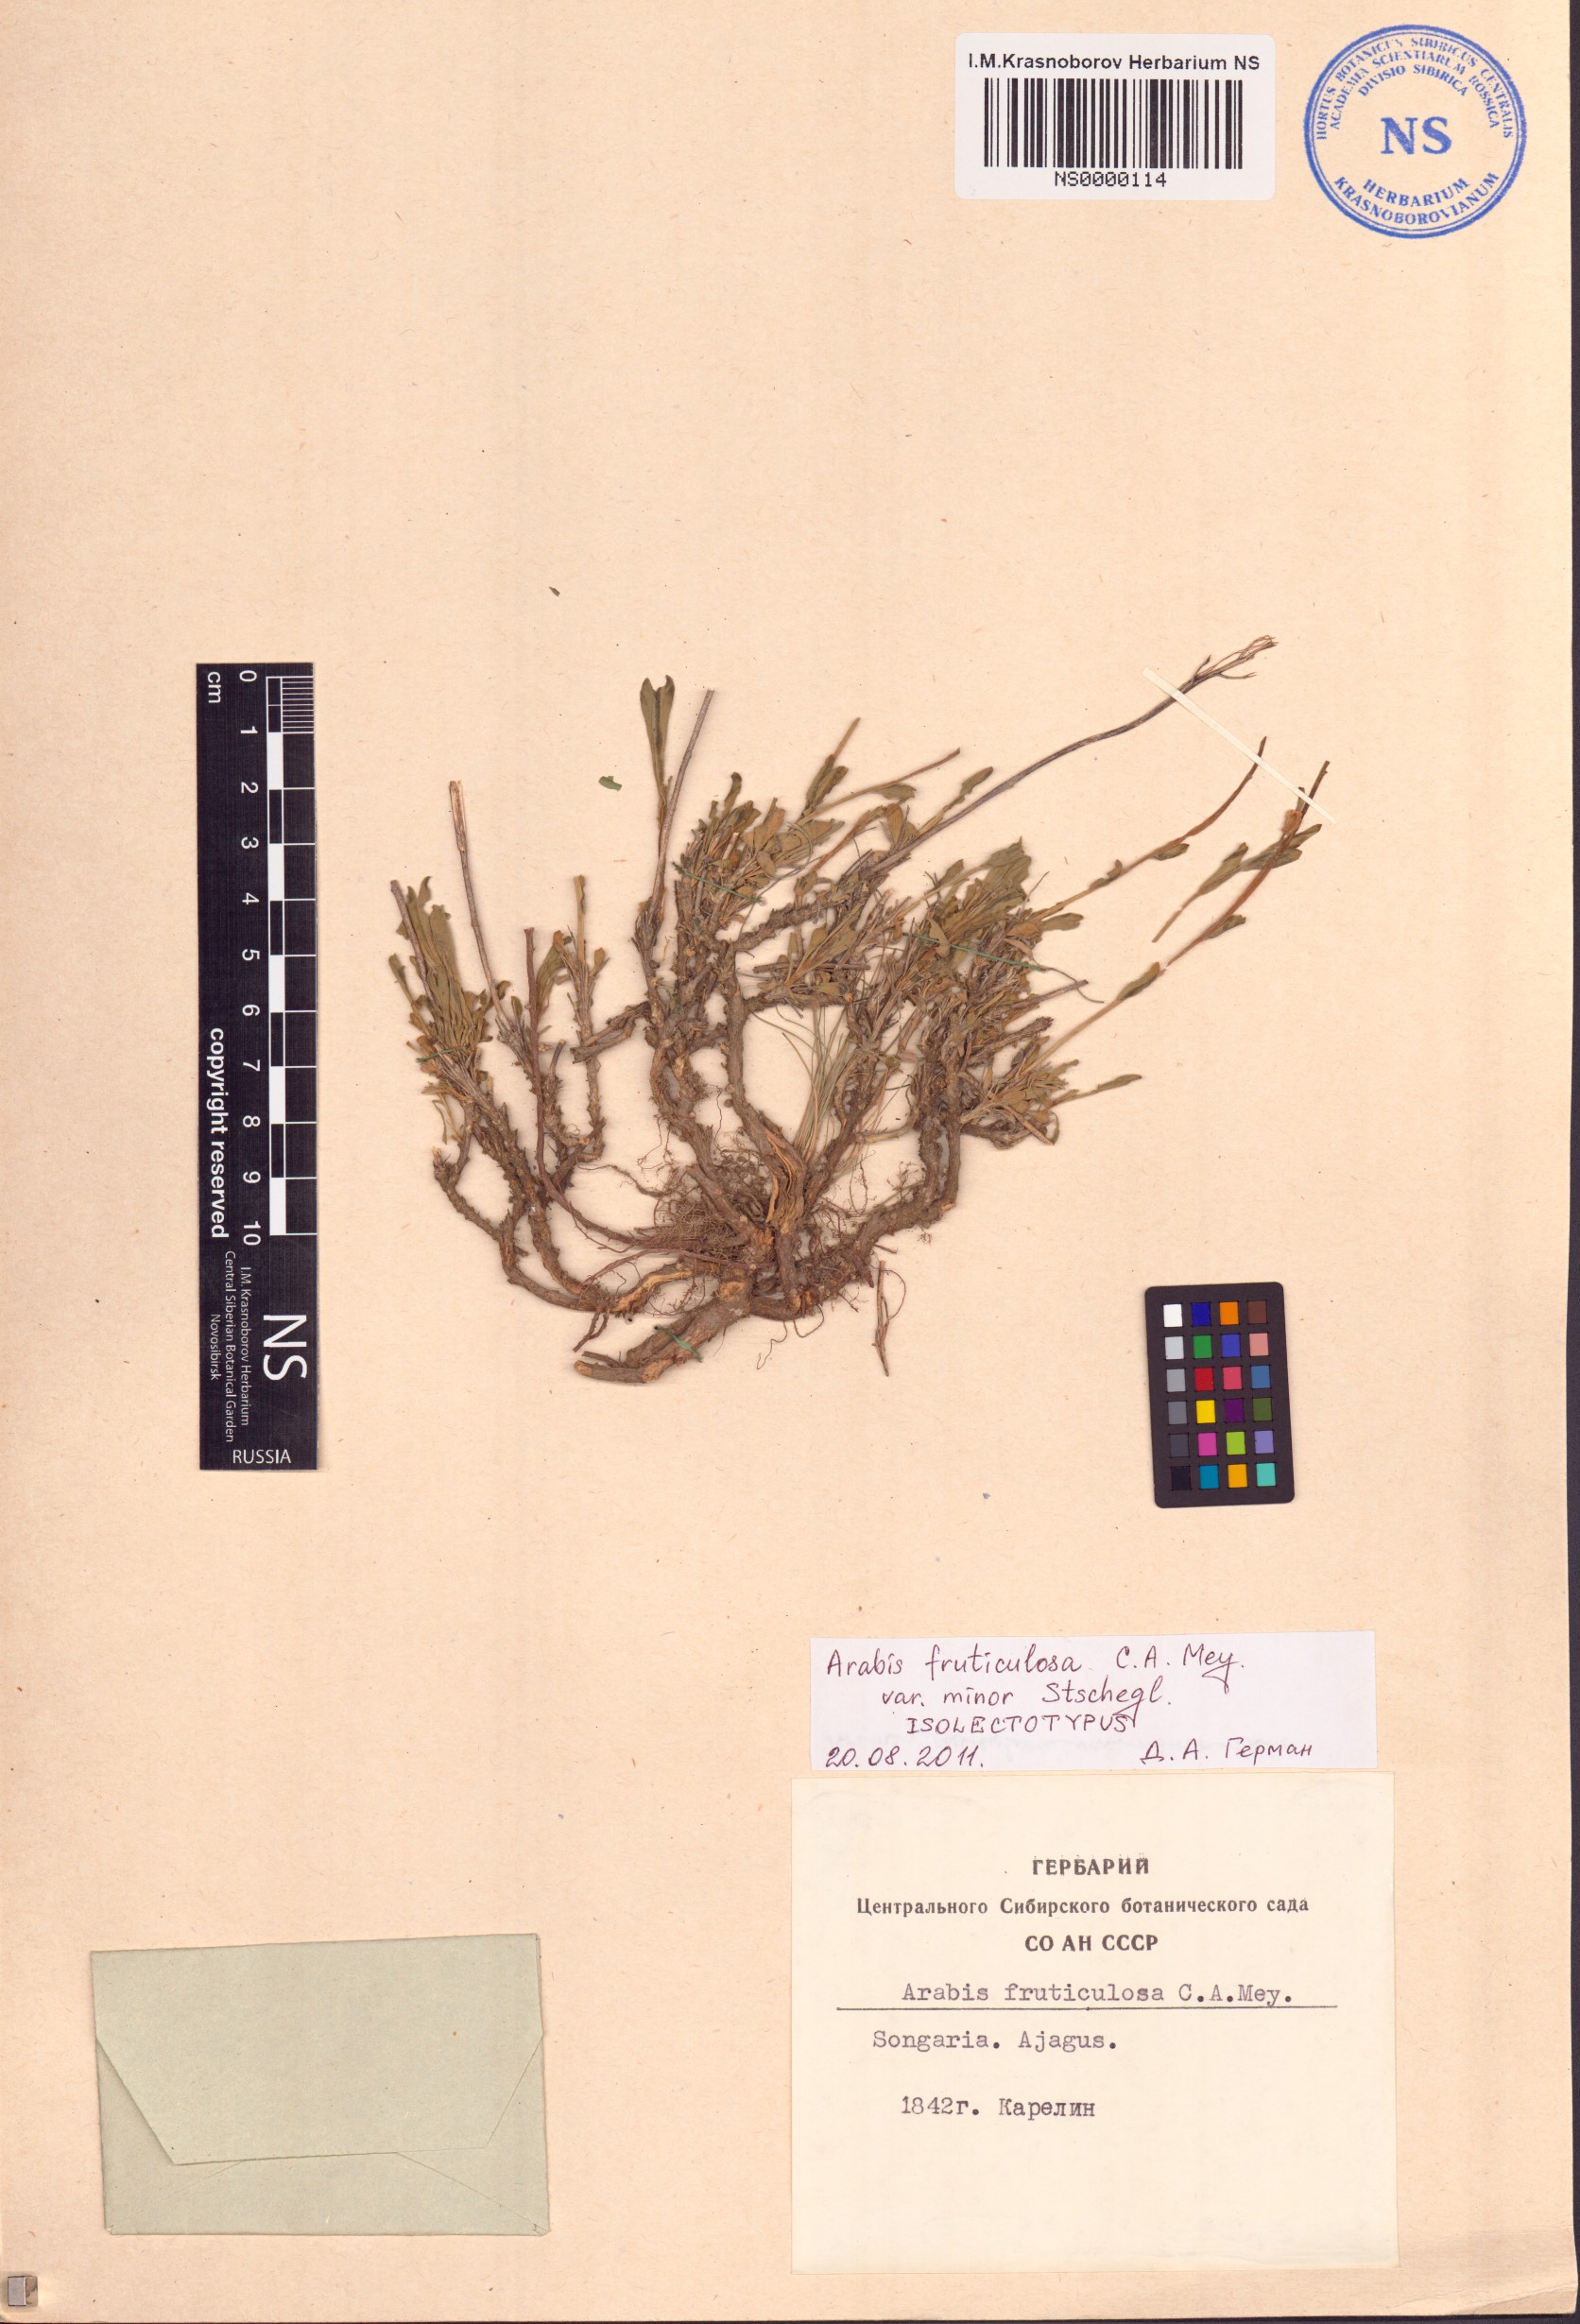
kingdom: Plantae
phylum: Tracheophyta
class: Magnoliopsida
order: Brassicales
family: Brassicaceae
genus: Dendroarabis
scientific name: Dendroarabis fruticulosa
